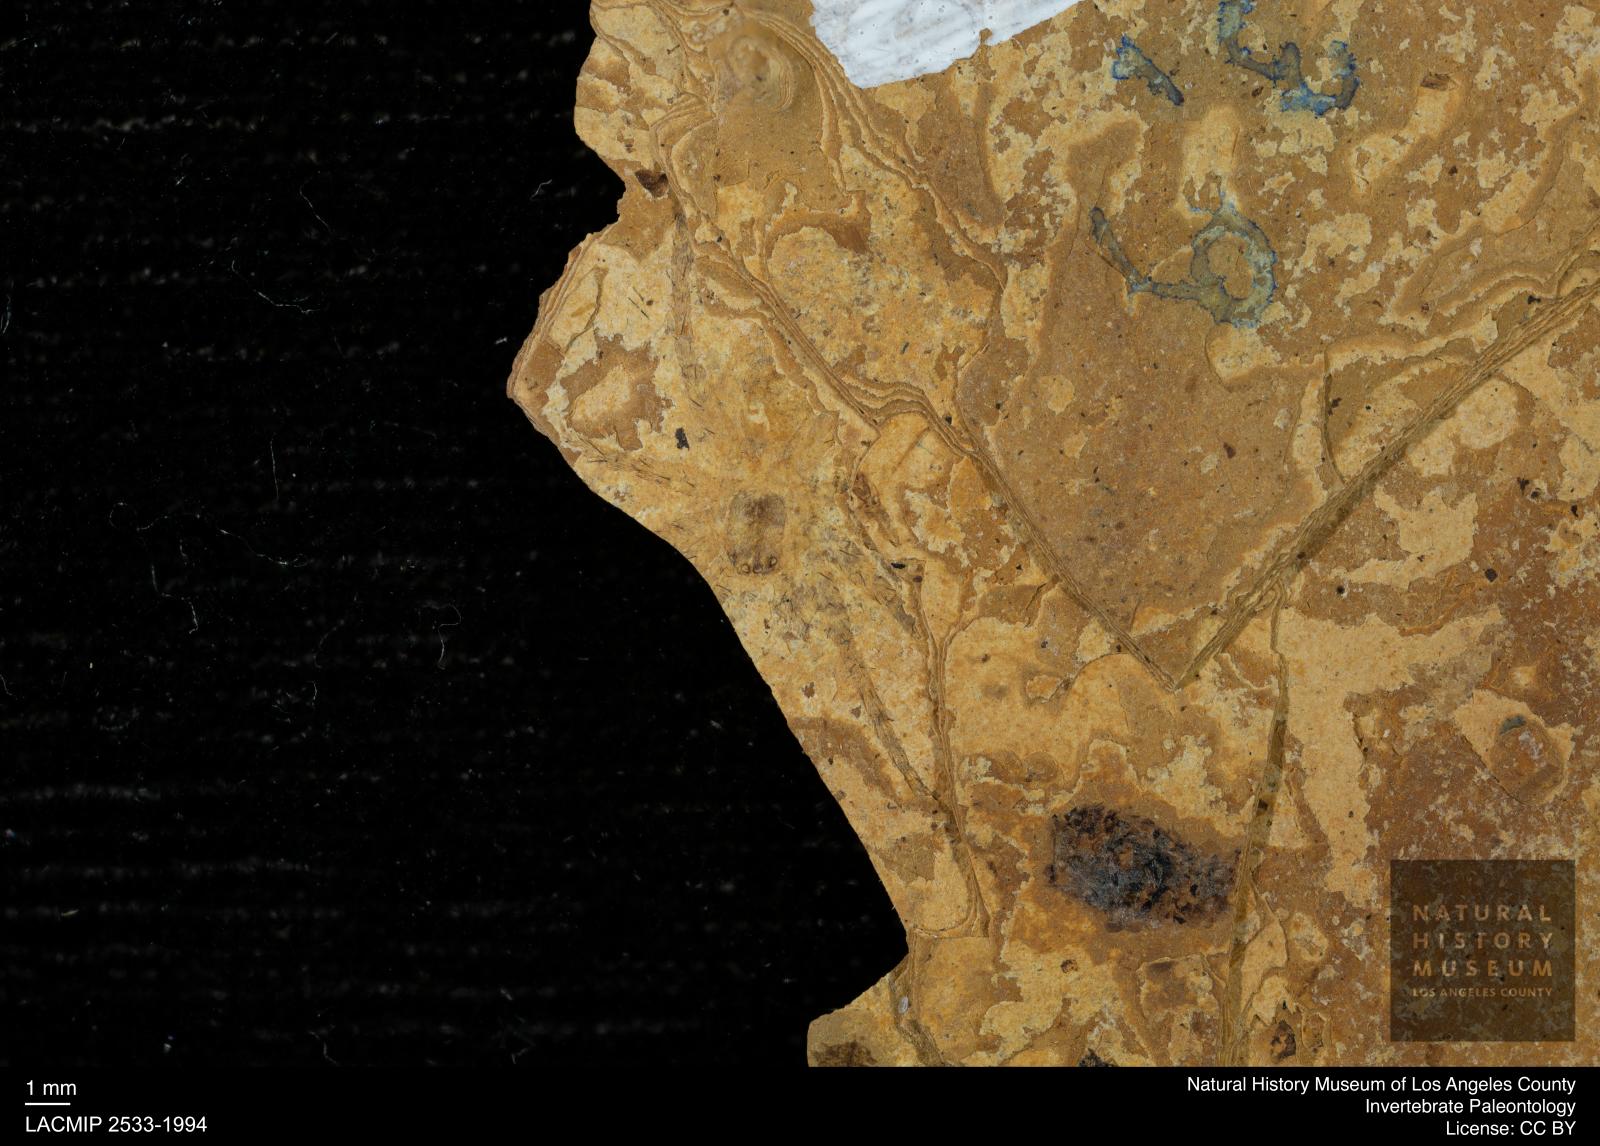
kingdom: Animalia
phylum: Arthropoda
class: Arachnida
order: Araneae
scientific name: Araneae
